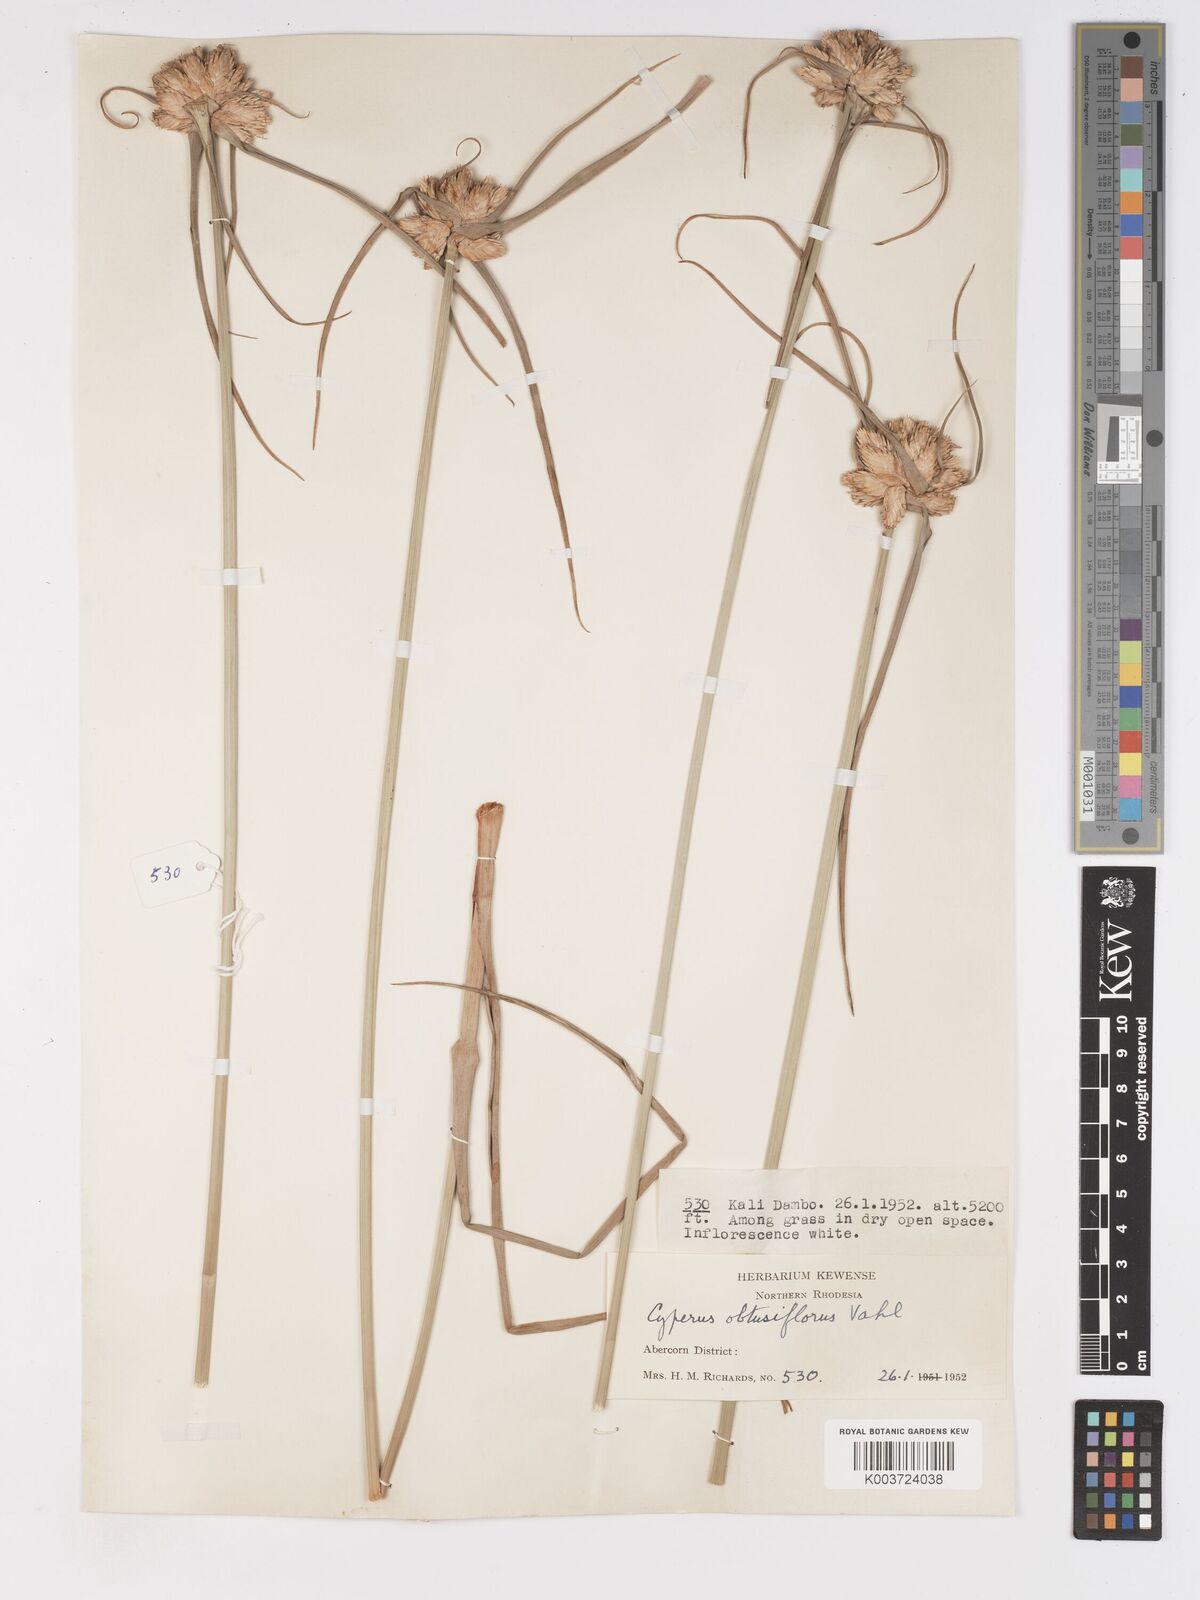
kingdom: Plantae
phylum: Tracheophyta
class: Liliopsida
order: Poales
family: Cyperaceae
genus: Cyperus
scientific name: Cyperus niveus
